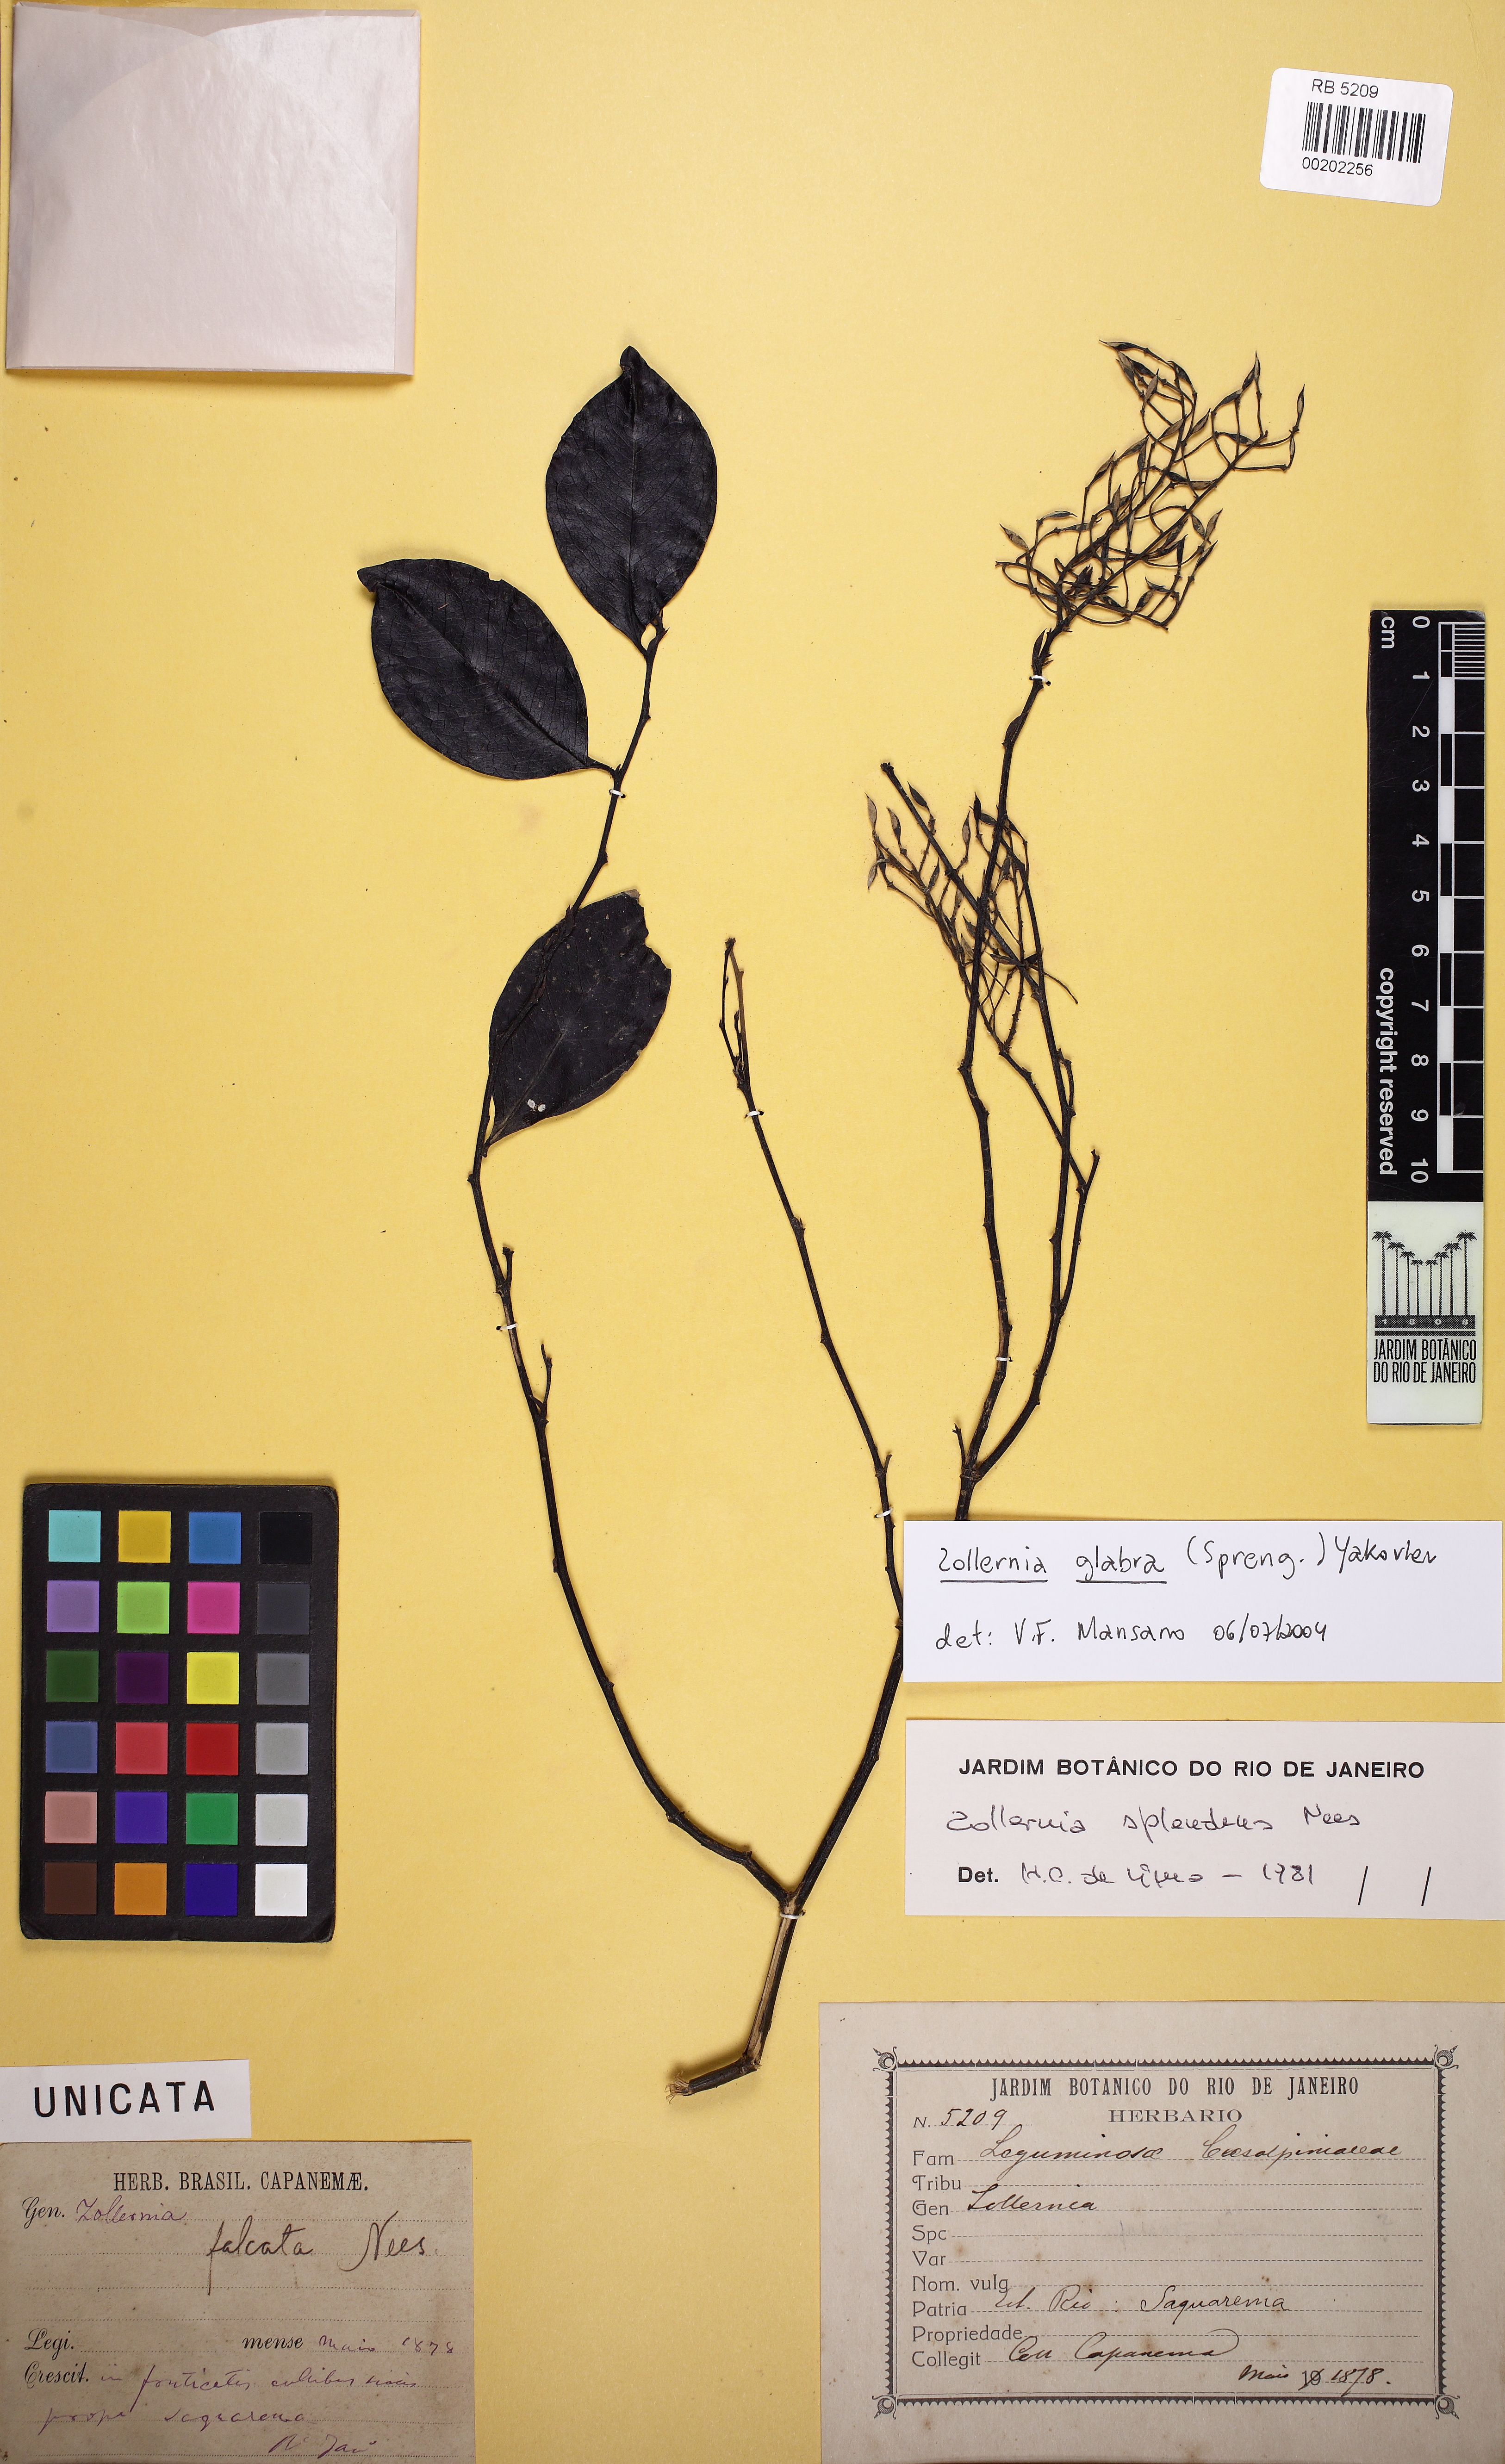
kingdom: Plantae
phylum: Tracheophyta
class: Magnoliopsida
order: Fabales
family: Fabaceae
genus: Zollernia
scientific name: Zollernia glabra
